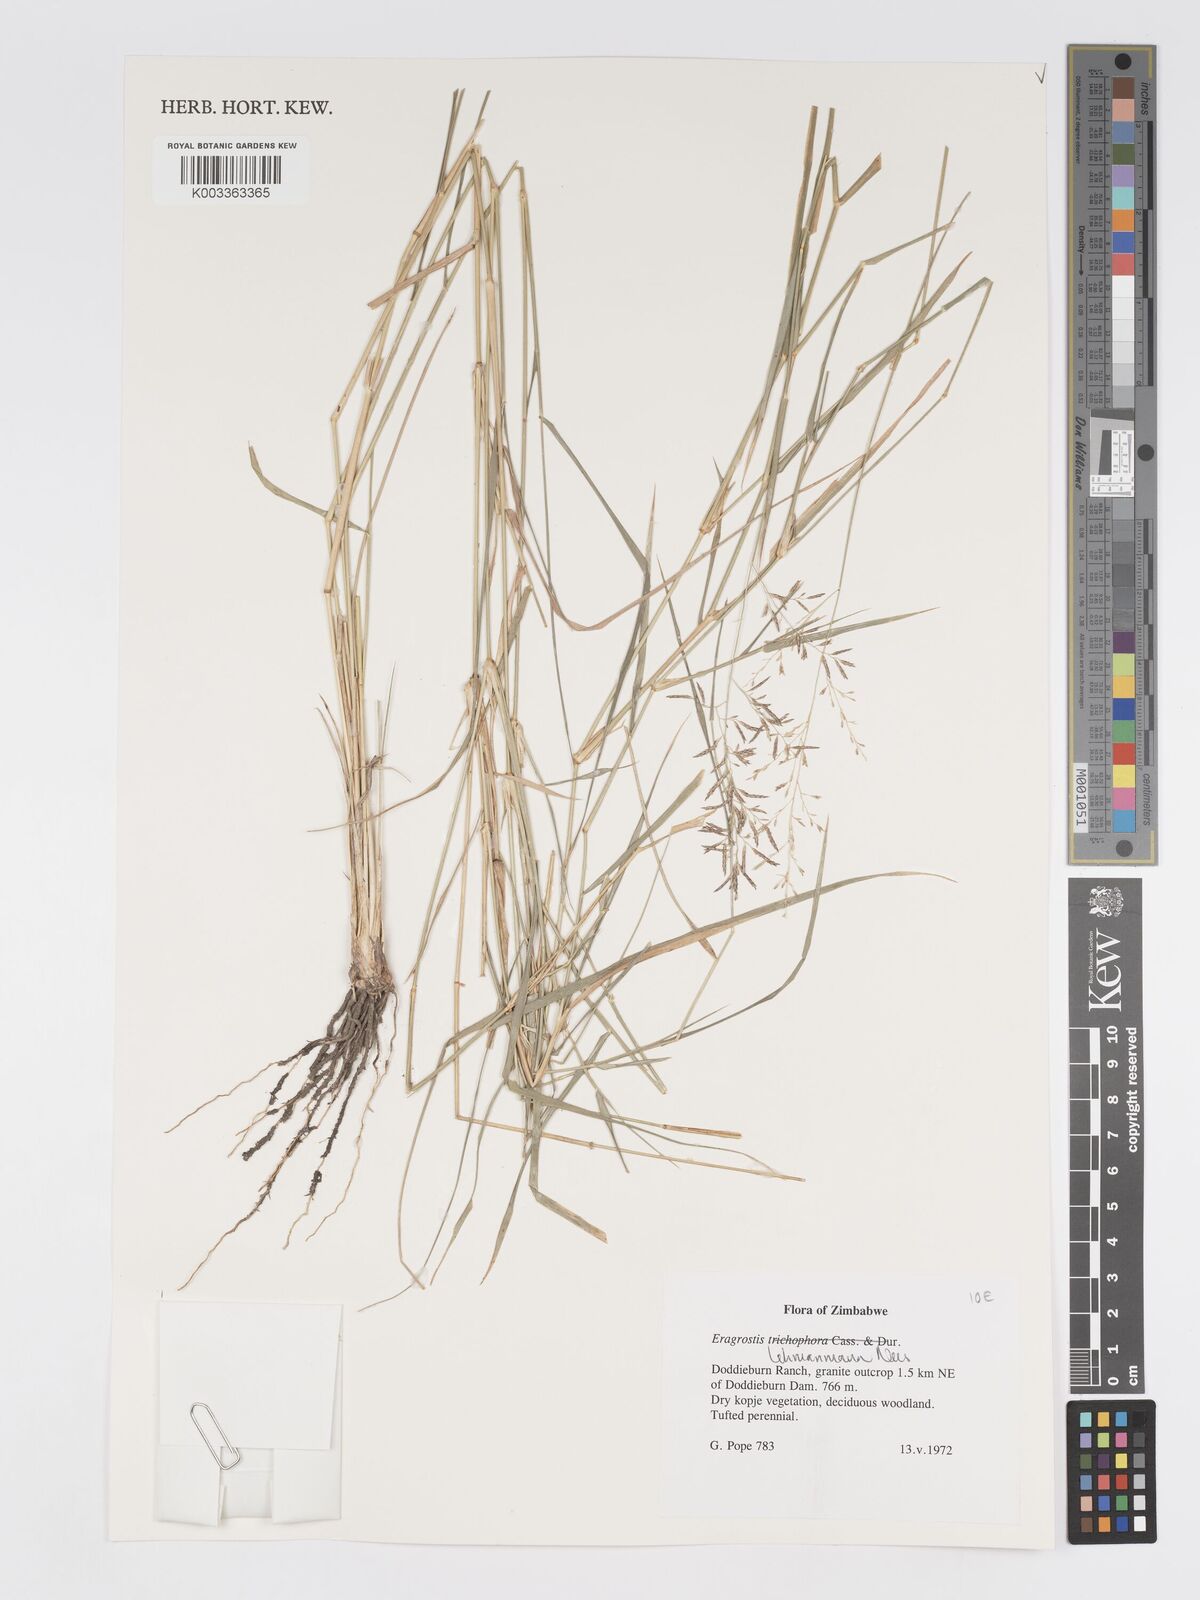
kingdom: Plantae
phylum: Tracheophyta
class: Liliopsida
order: Poales
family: Poaceae
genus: Eragrostis
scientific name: Eragrostis lehmanniana
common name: Lehmann lovegrass
